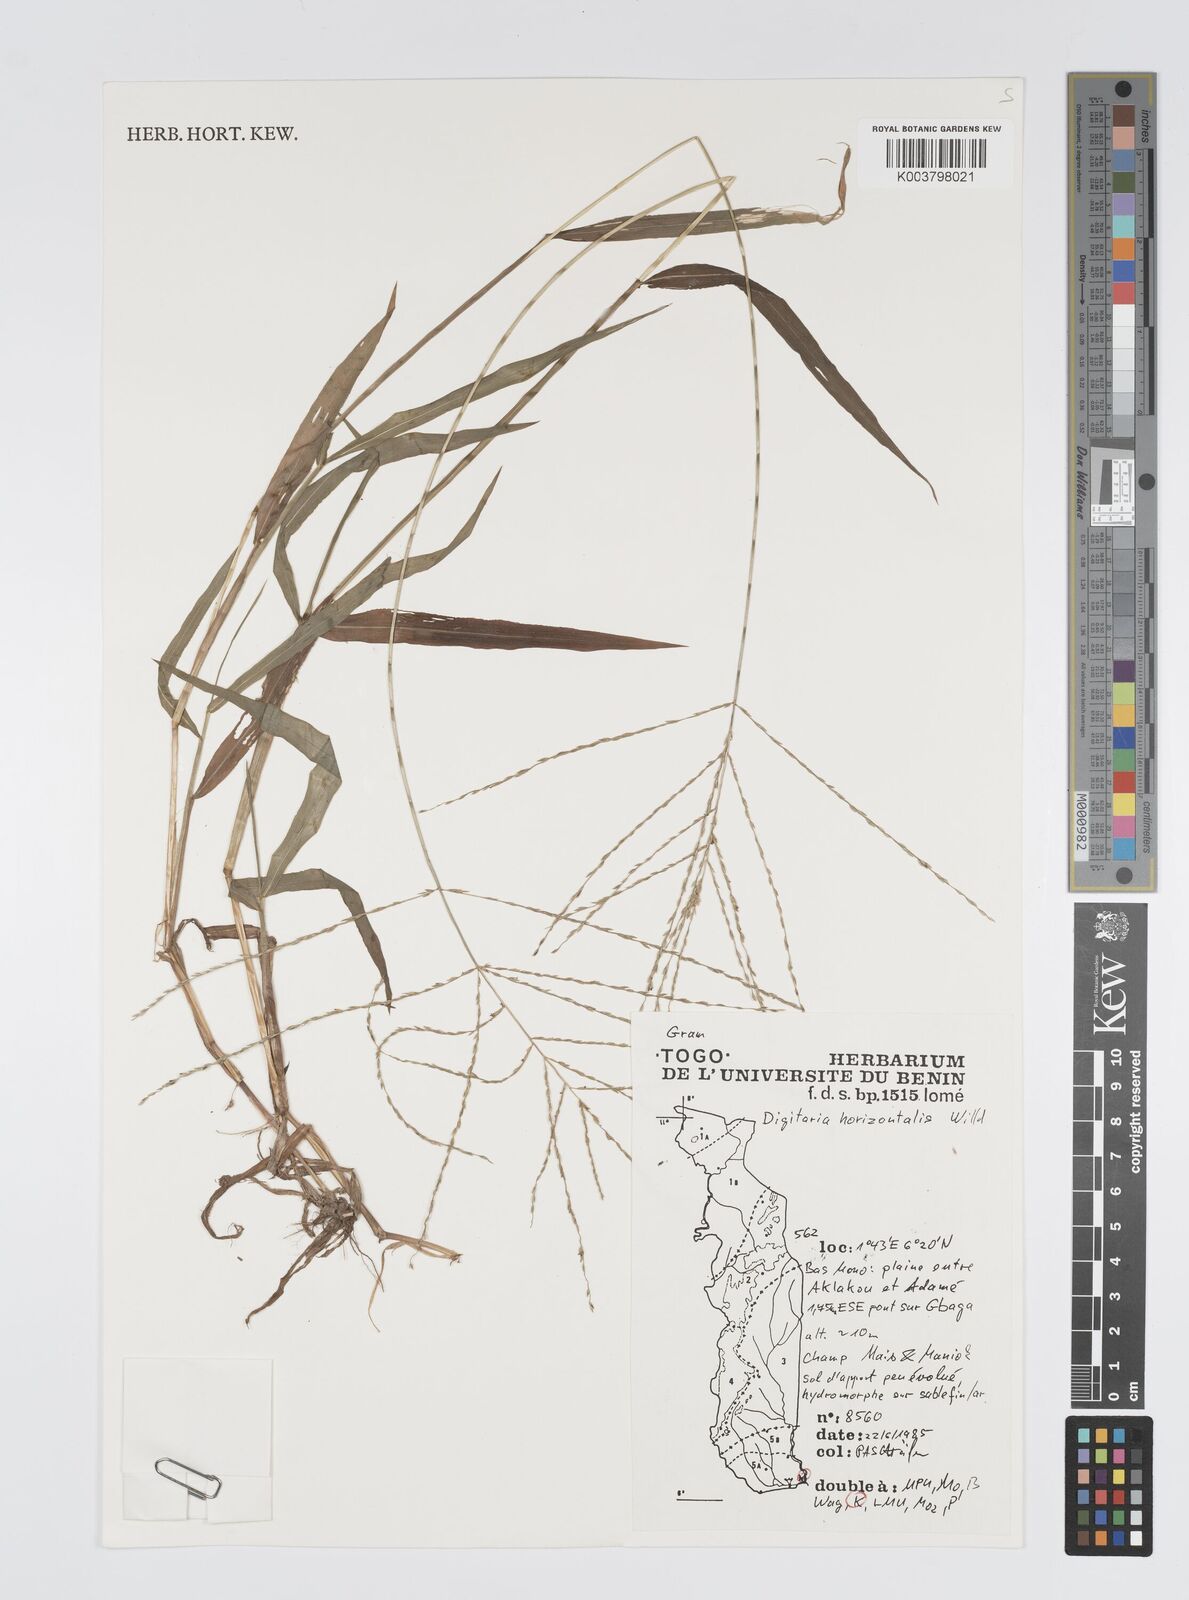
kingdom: Plantae
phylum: Tracheophyta
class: Liliopsida
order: Poales
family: Poaceae
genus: Digitaria
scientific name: Digitaria horizontalis
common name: Jamaican crabgrass
